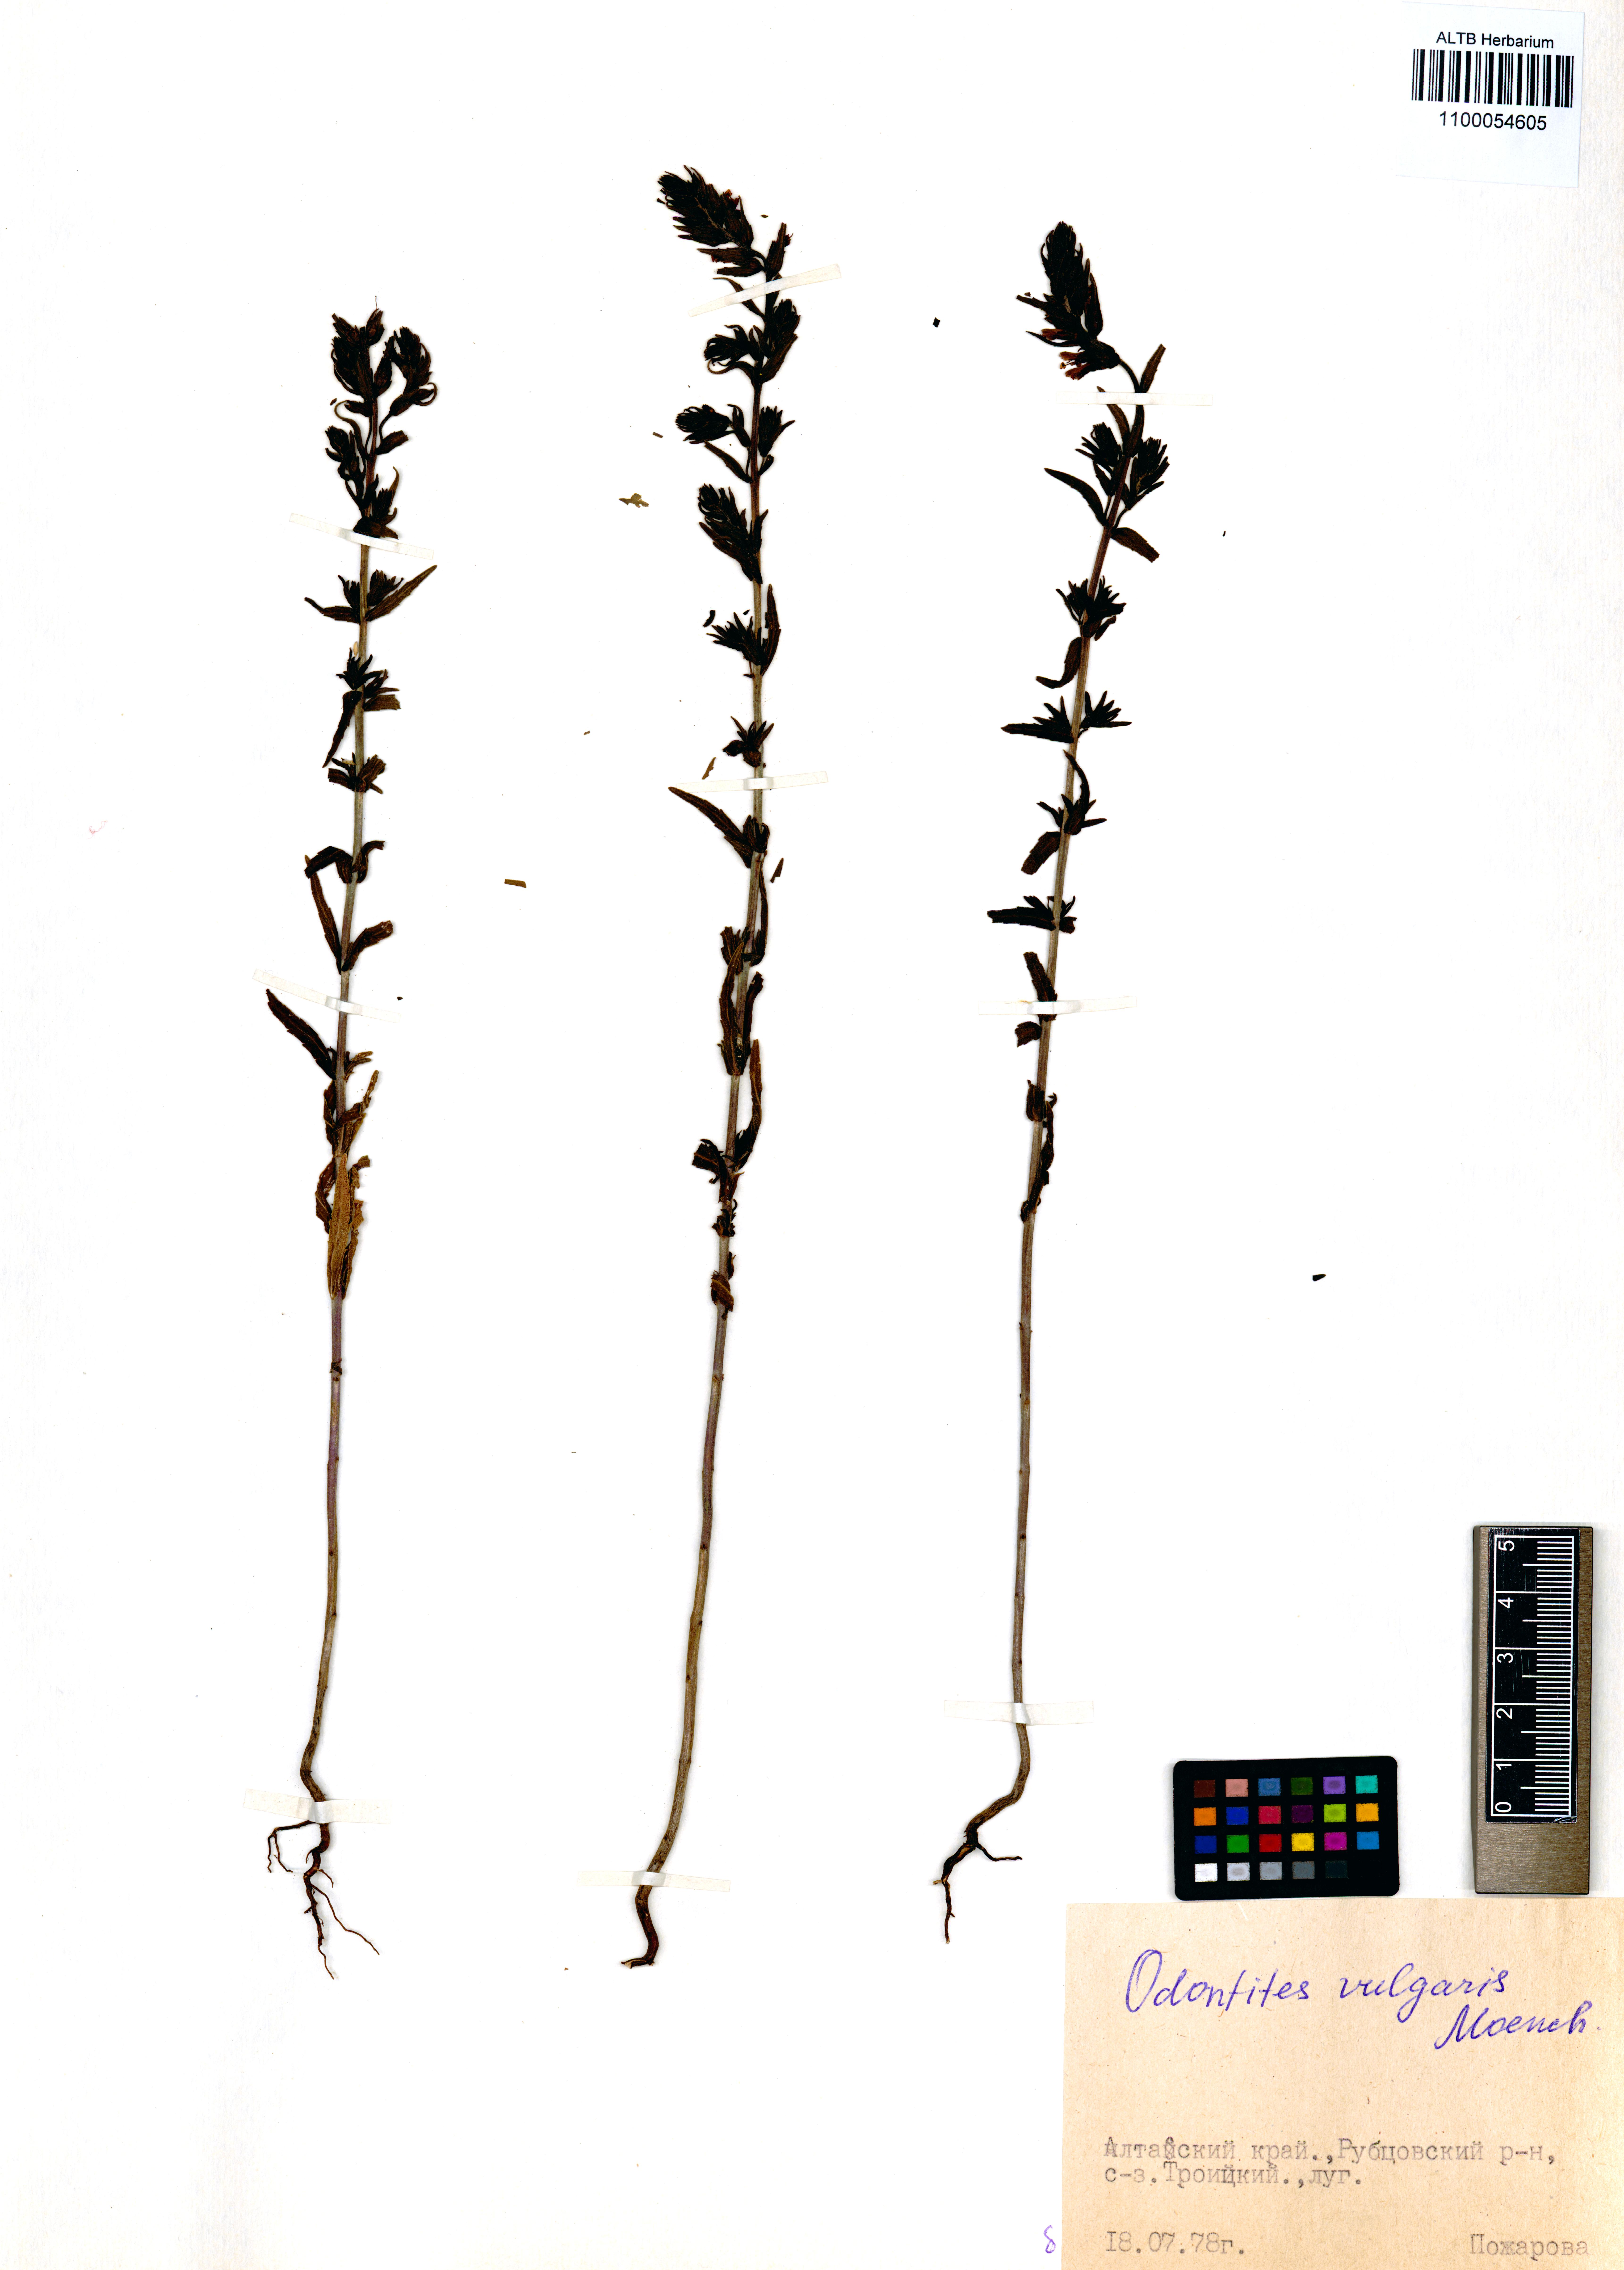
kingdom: Plantae
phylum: Tracheophyta
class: Magnoliopsida
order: Lamiales
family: Orobanchaceae
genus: Odontites
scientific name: Odontites vulgaris
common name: Broomrape
